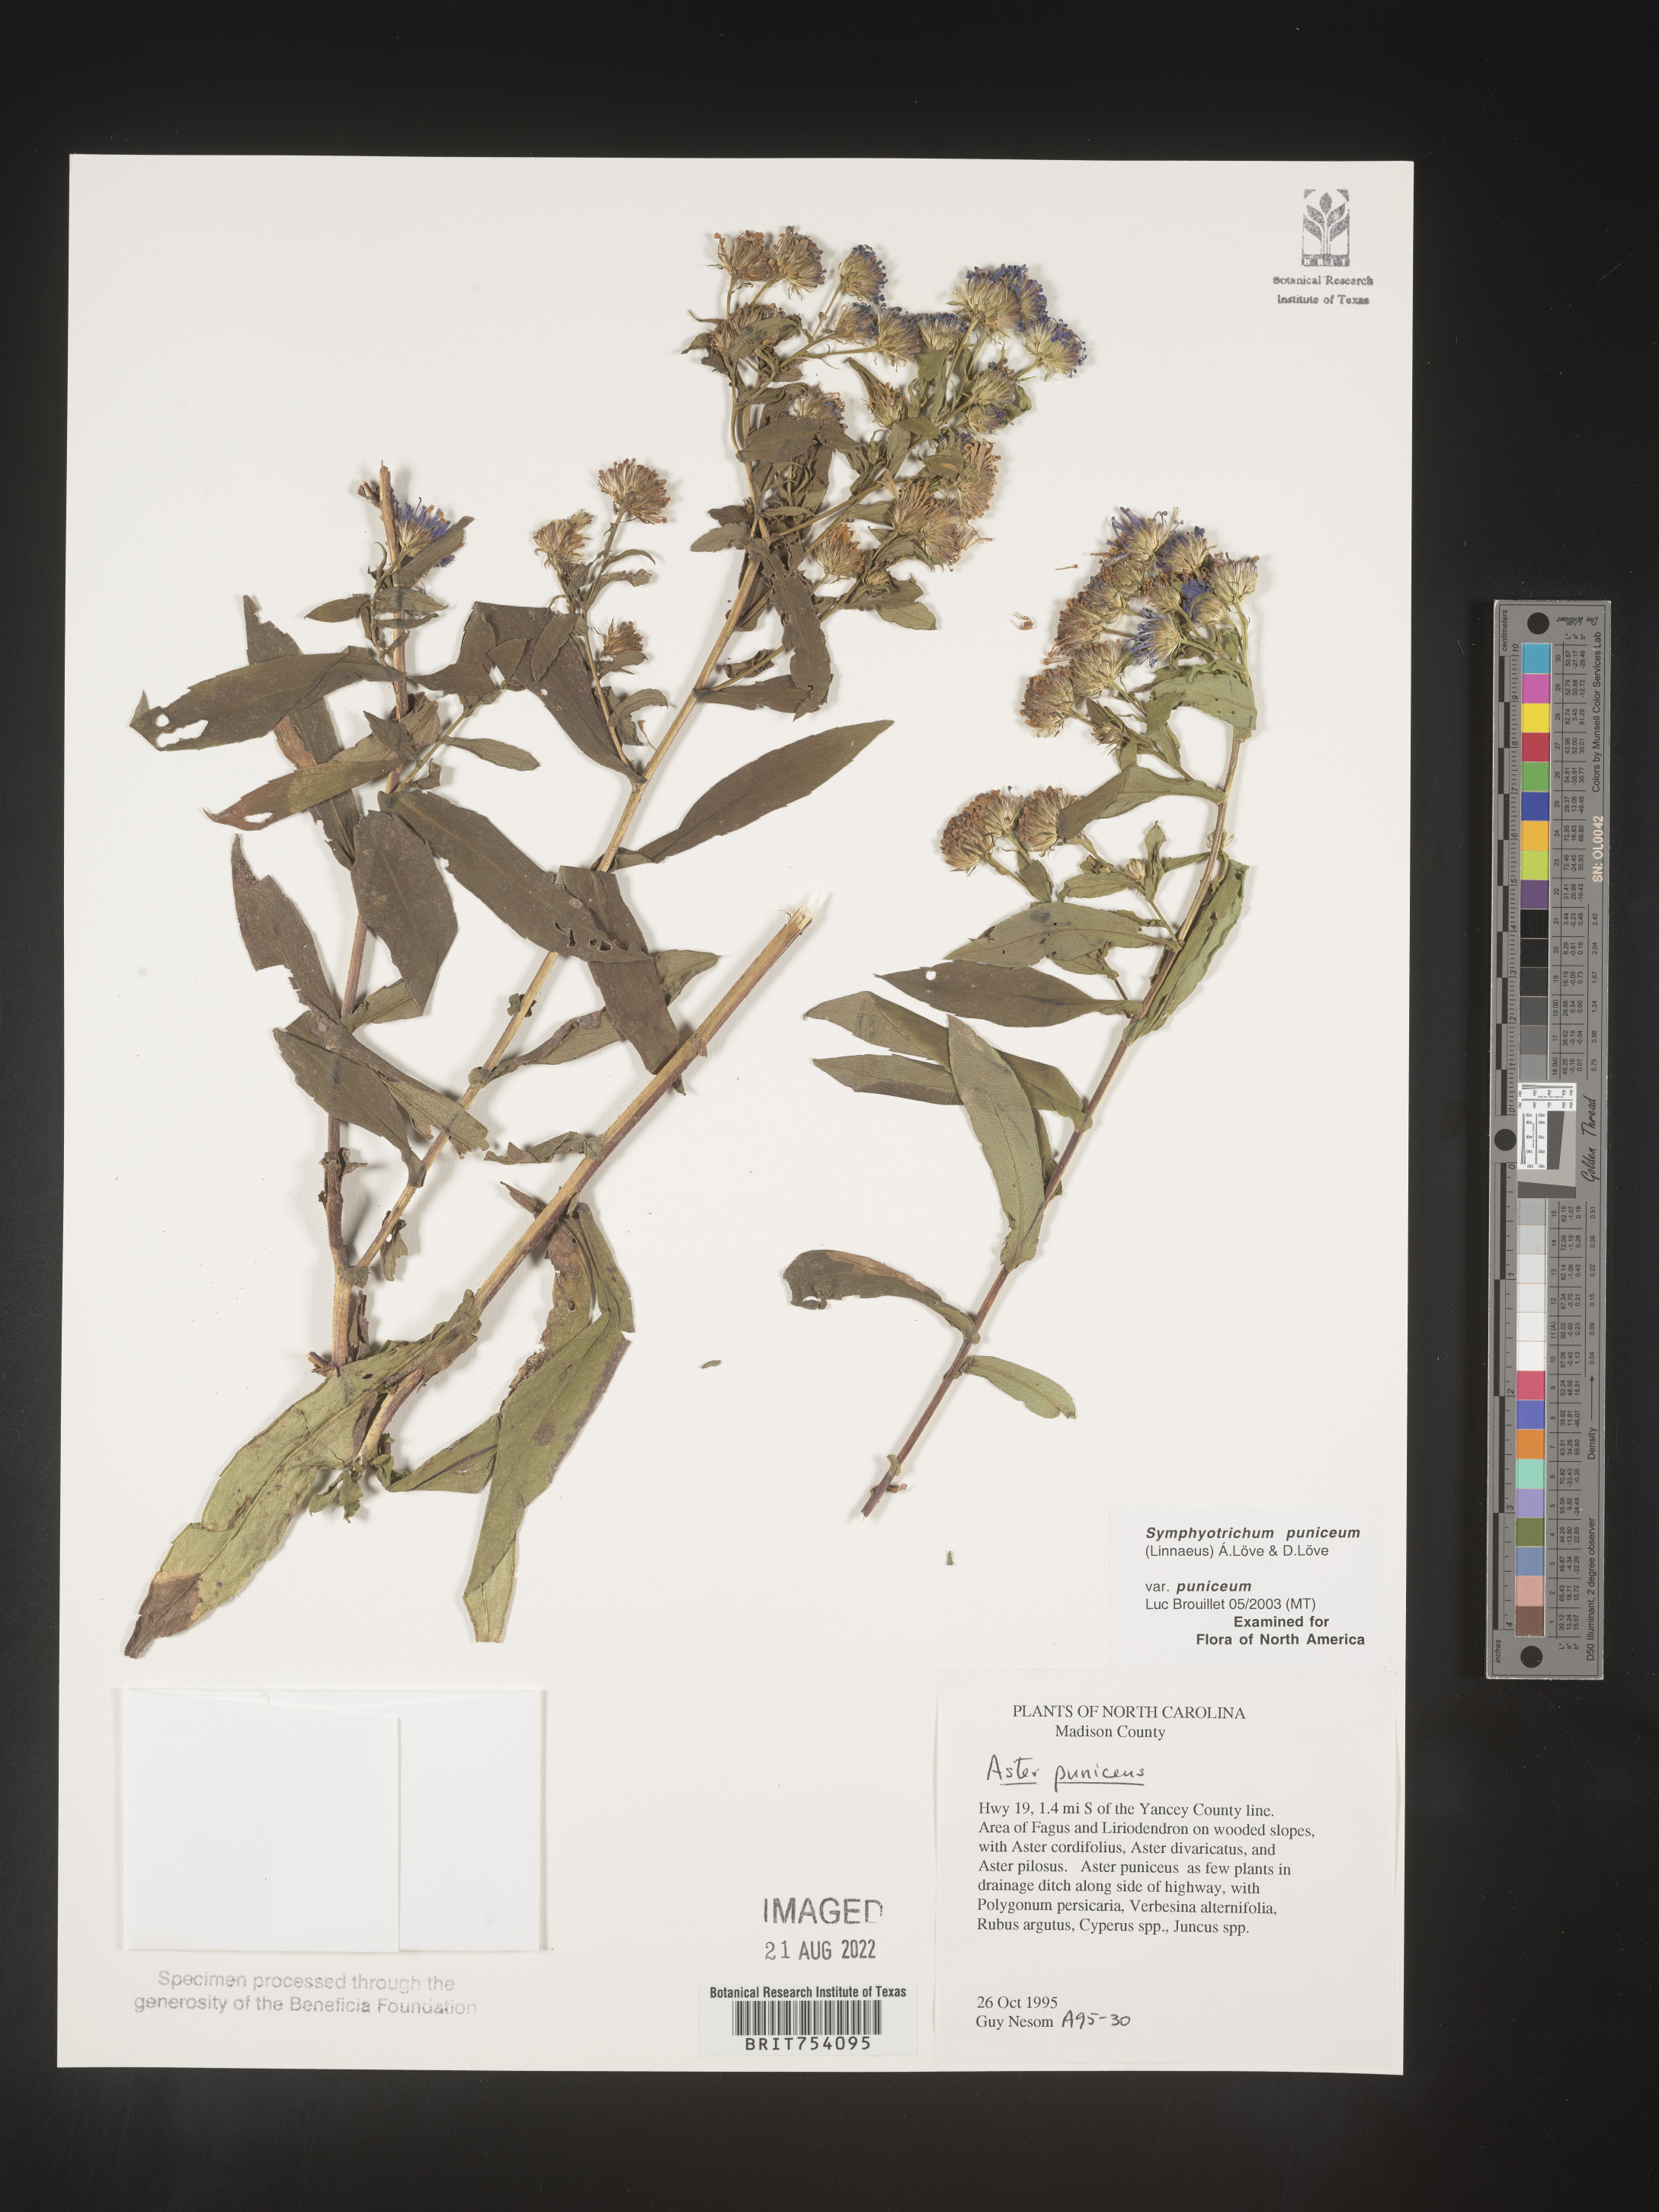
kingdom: Plantae
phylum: Tracheophyta
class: Magnoliopsida
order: Asterales
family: Asteraceae
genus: Symphyotrichum
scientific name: Symphyotrichum puniceum
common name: Bog aster
